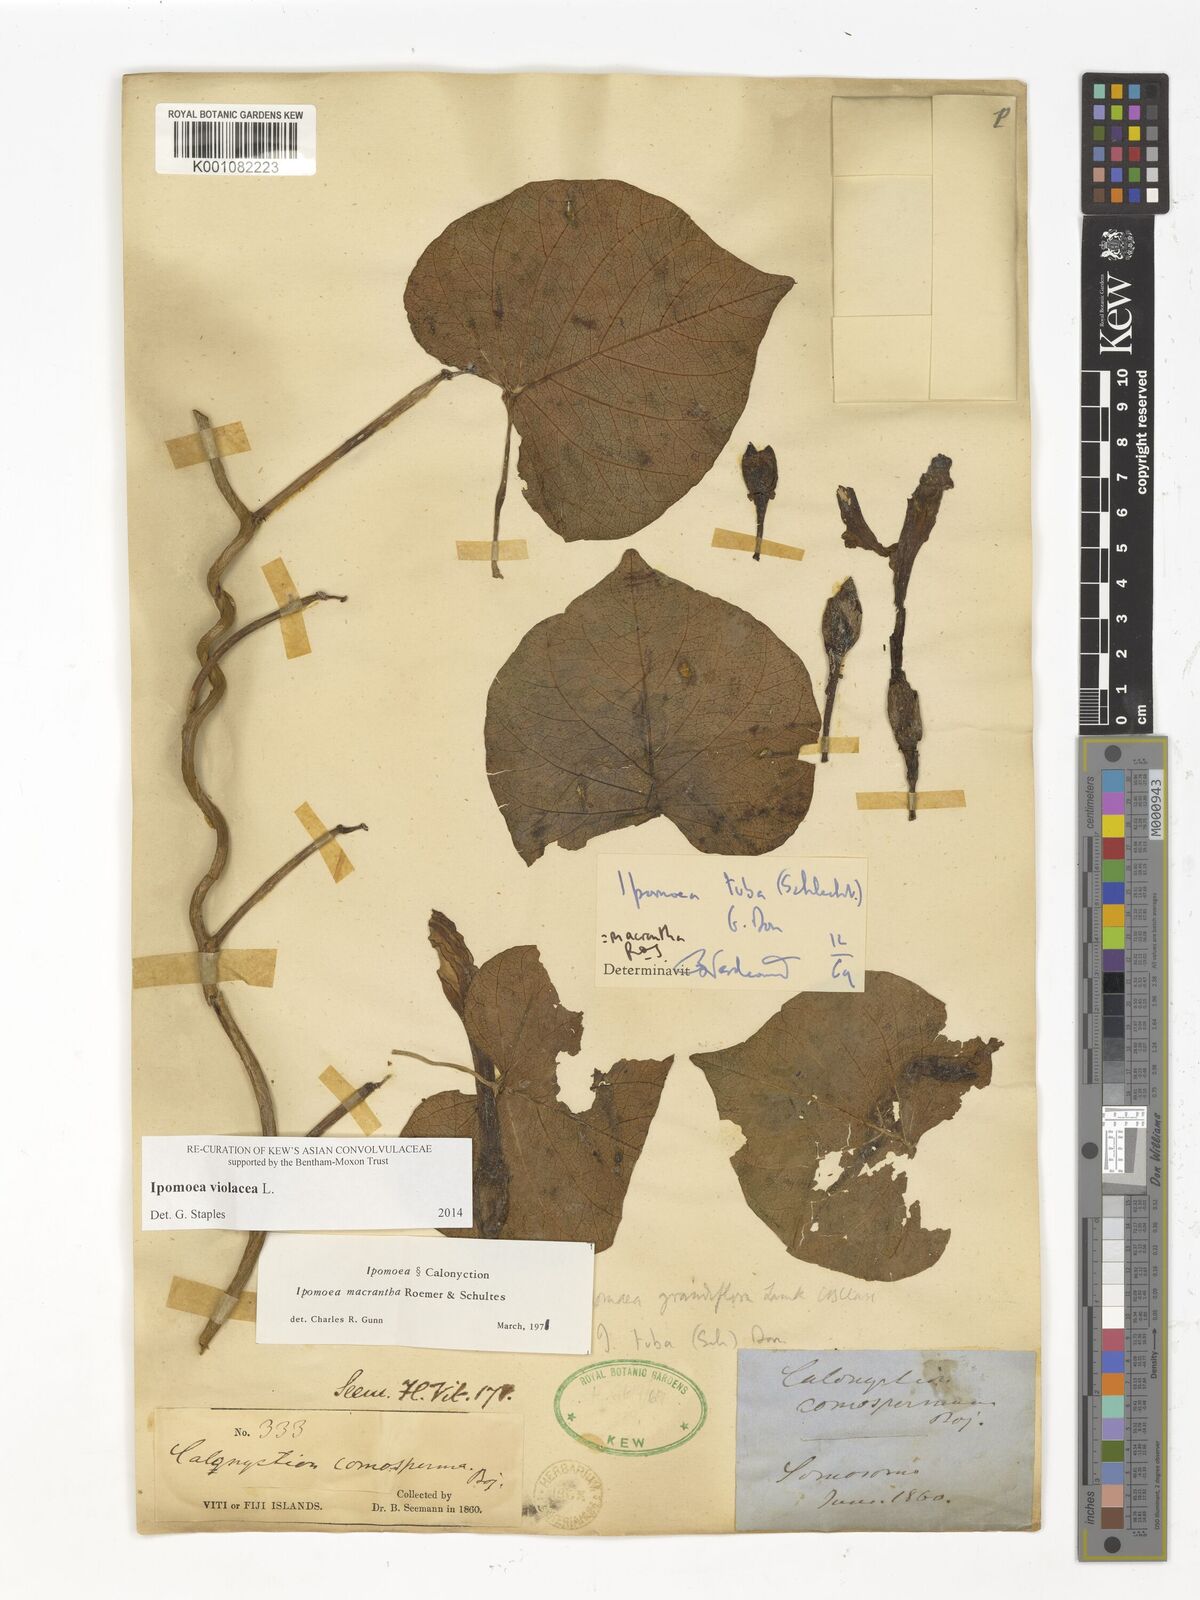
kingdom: Plantae
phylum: Tracheophyta
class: Magnoliopsida
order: Solanales
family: Convolvulaceae
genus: Ipomoea
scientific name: Ipomoea violacea
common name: Beach moonflower
